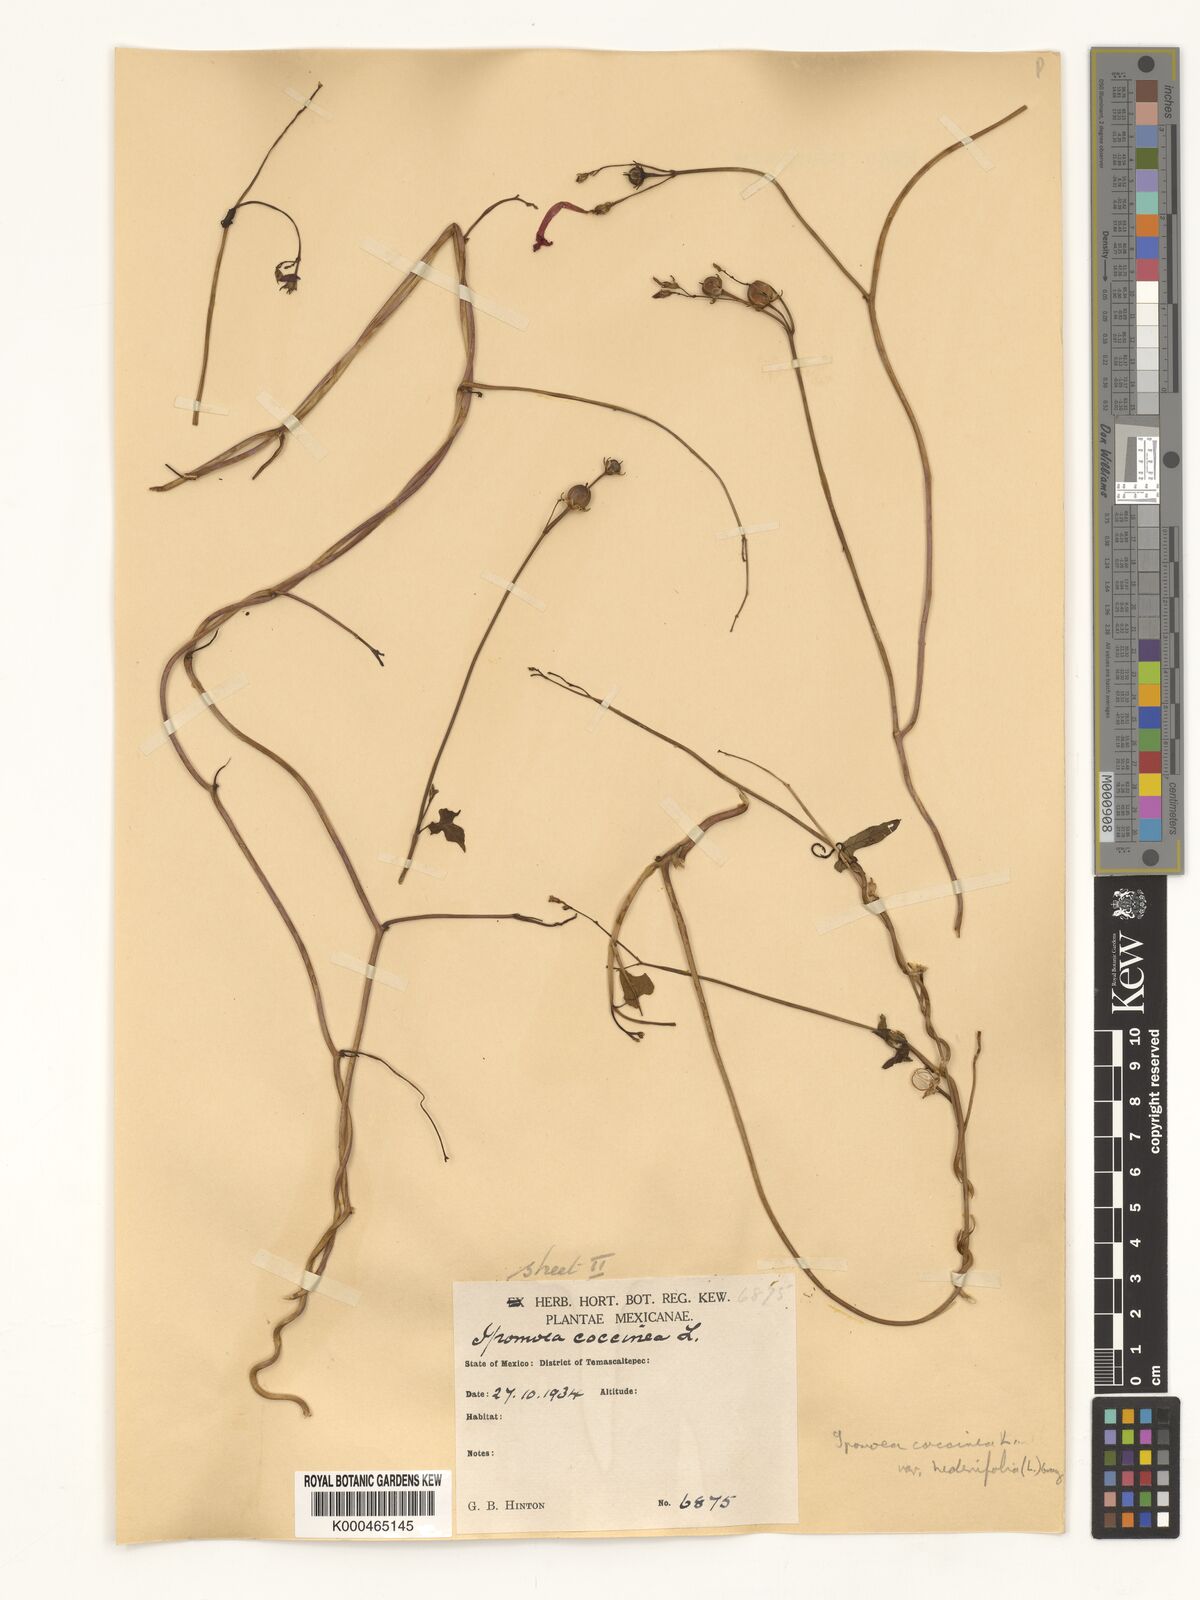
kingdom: Plantae
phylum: Tracheophyta
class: Magnoliopsida
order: Solanales
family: Convolvulaceae
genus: Ipomoea
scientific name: Ipomoea hederifolia
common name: Ivy-leaf morning-glory
